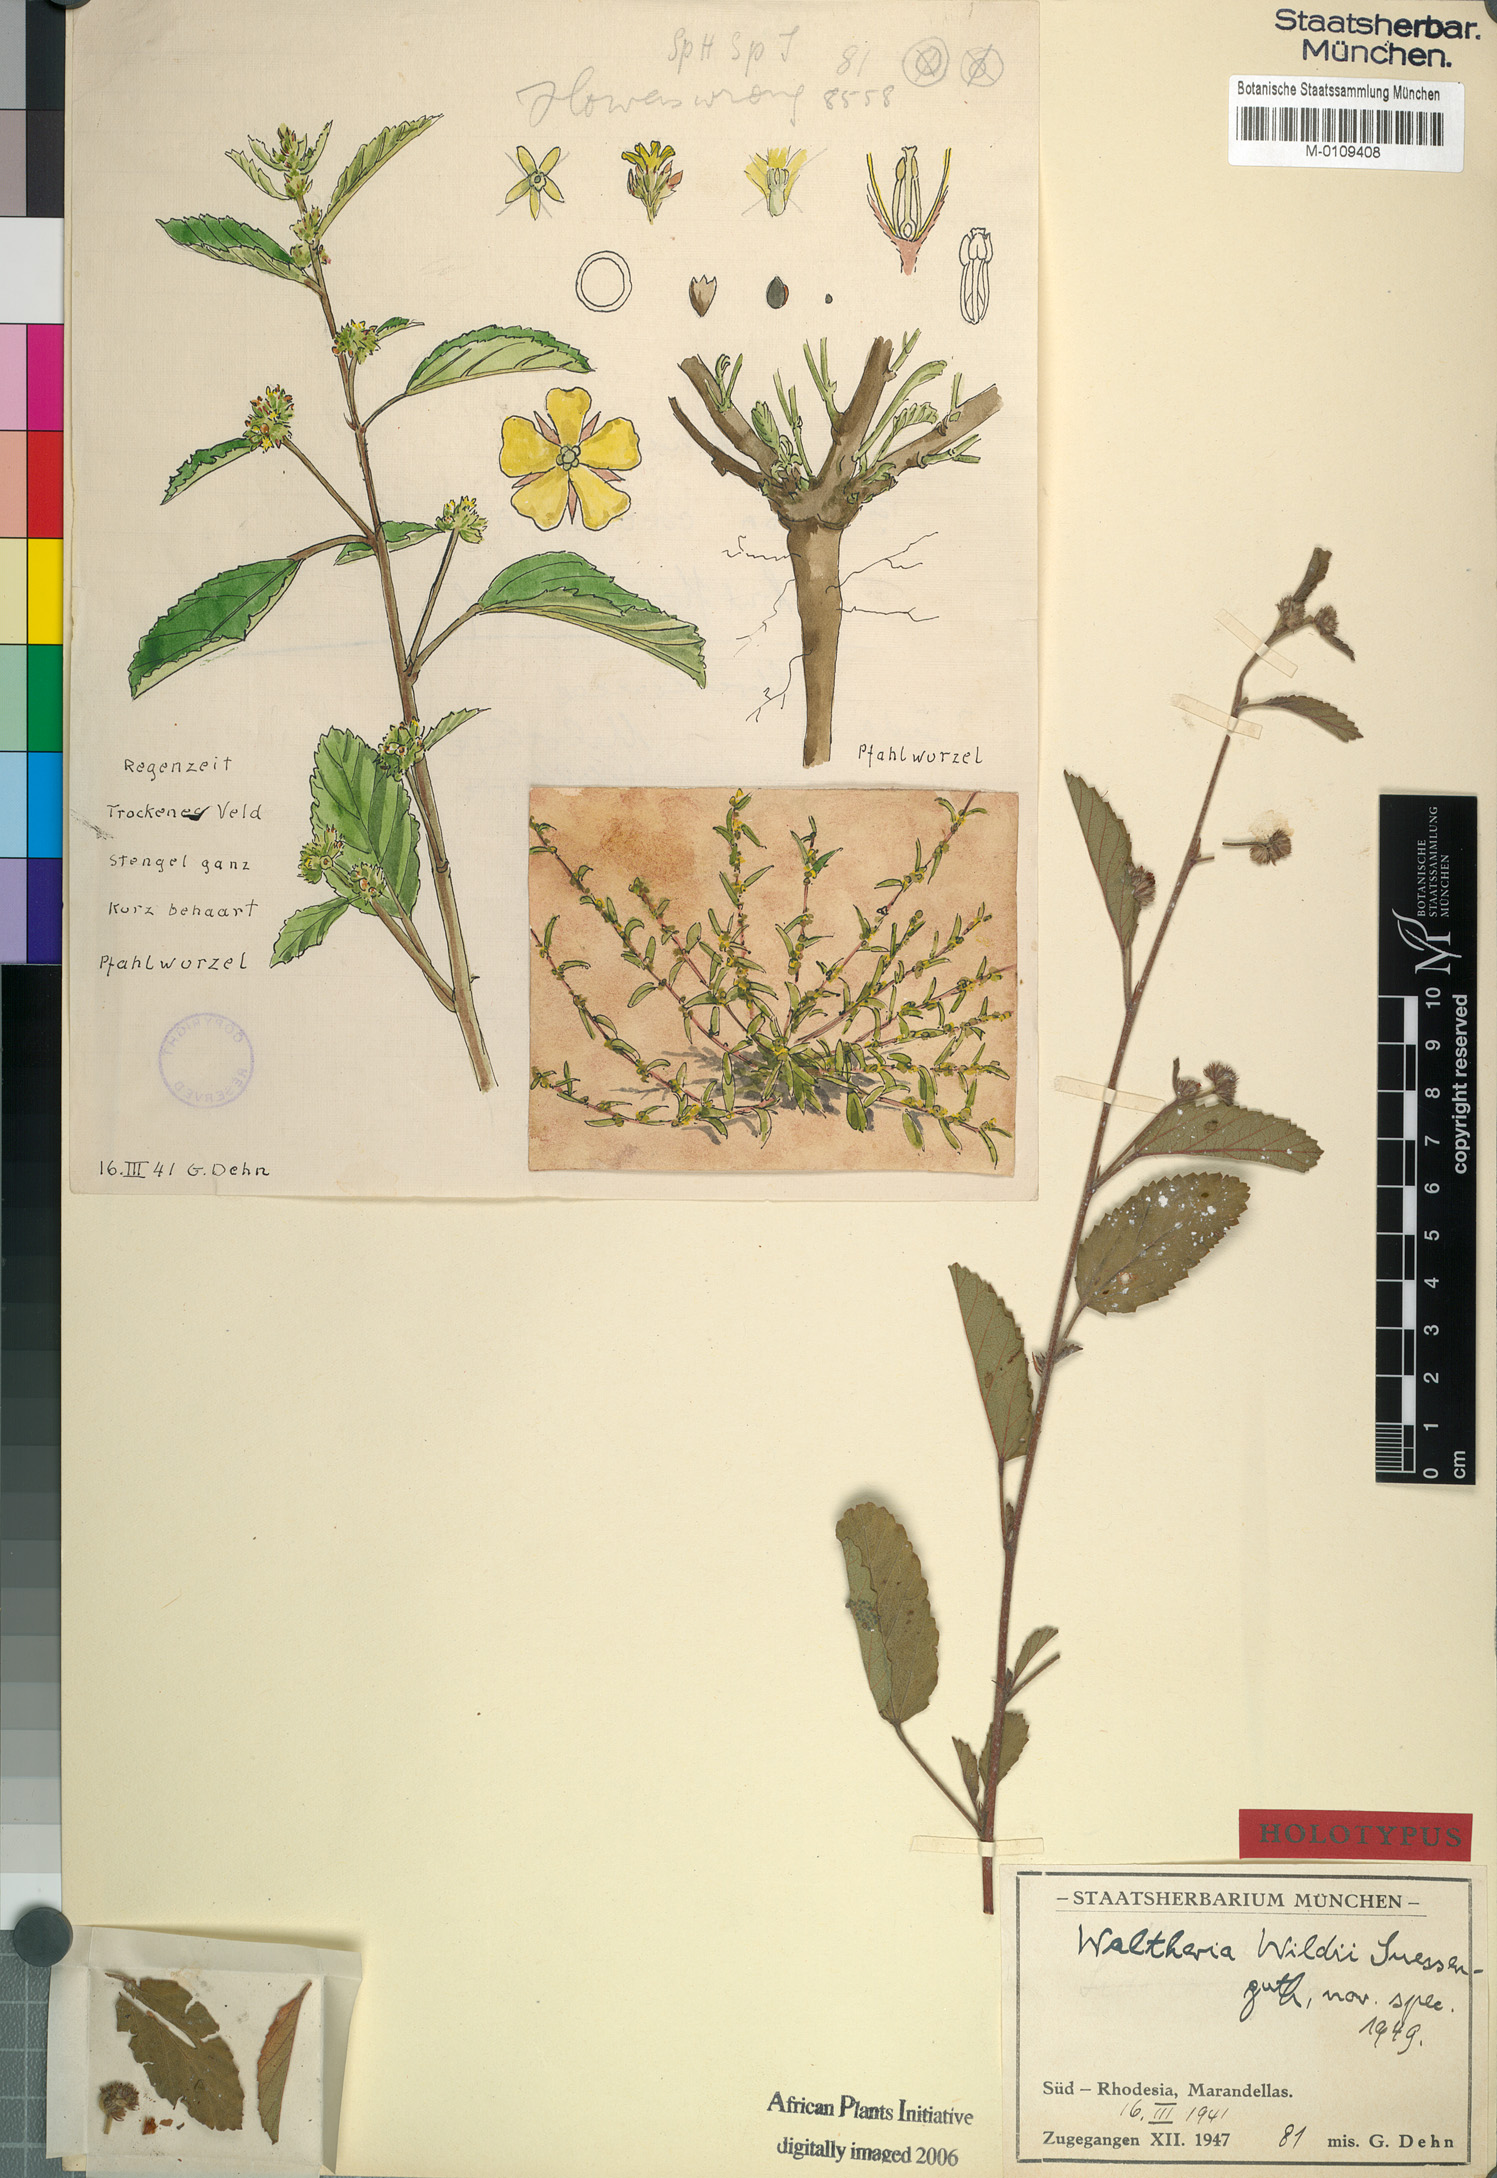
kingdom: Plantae
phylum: Tracheophyta
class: Magnoliopsida
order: Malvales
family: Malvaceae
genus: Waltheria
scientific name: Waltheria indica
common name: Leather-coat
